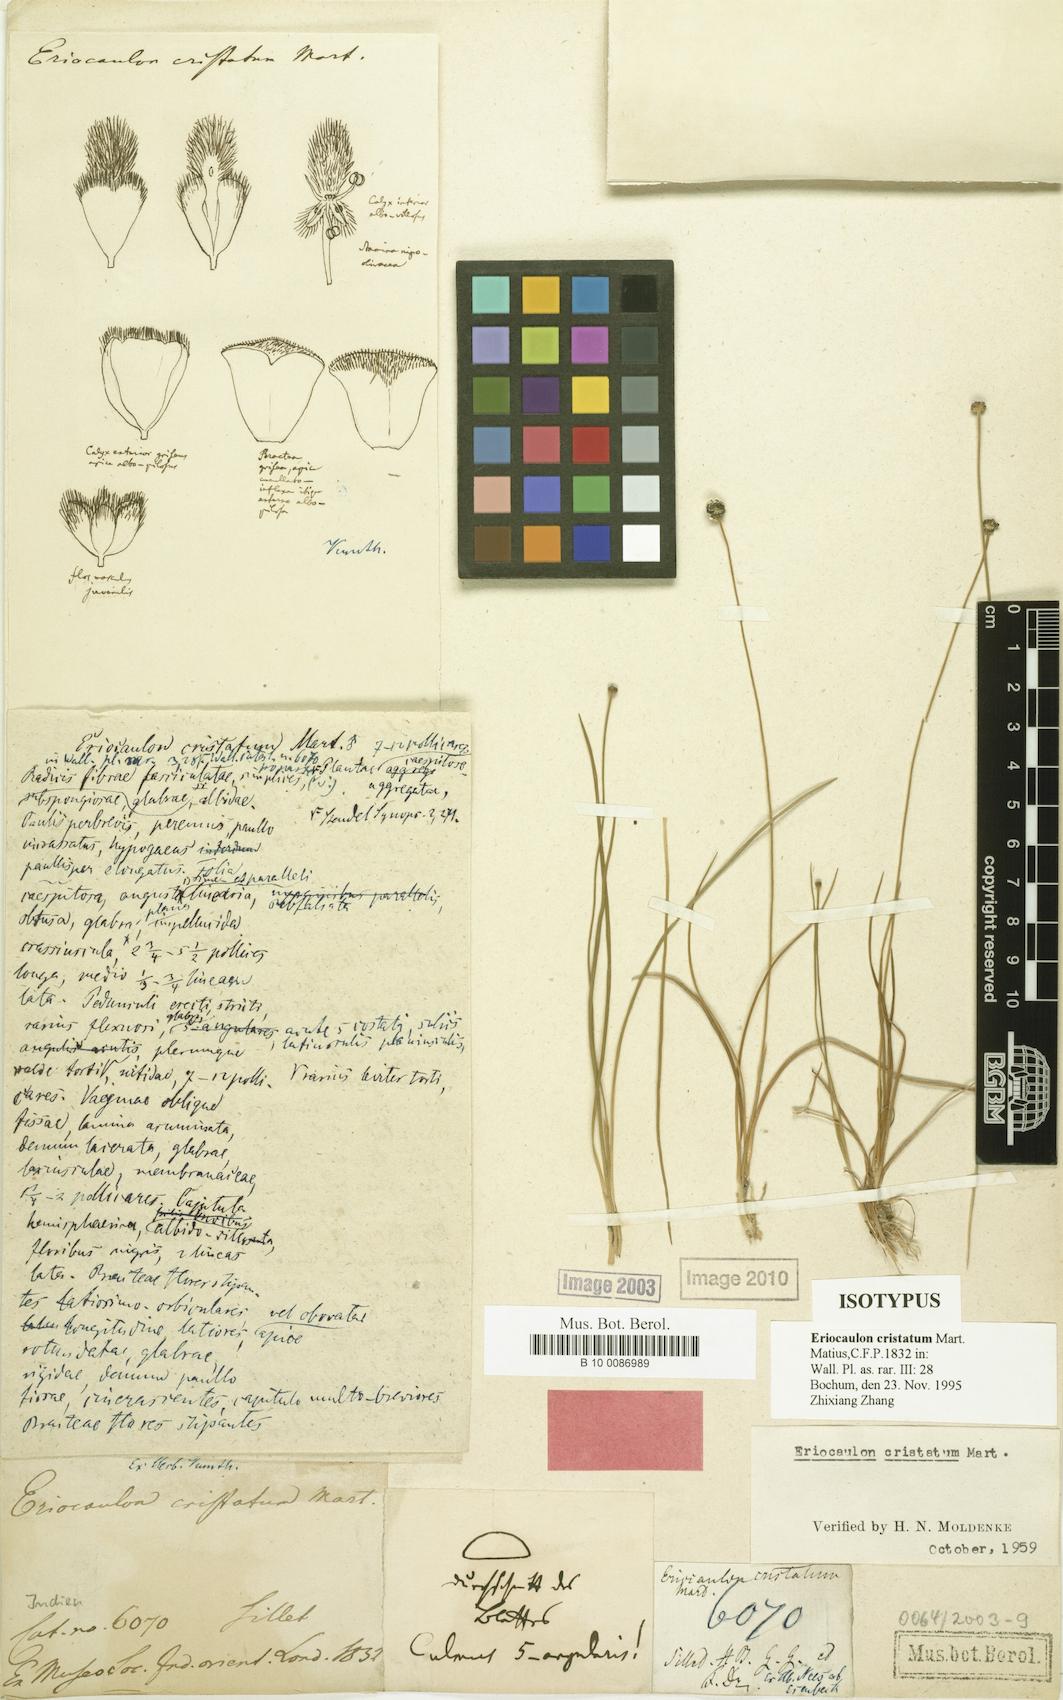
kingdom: Plantae
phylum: Tracheophyta
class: Liliopsida
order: Poales
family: Eriocaulaceae
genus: Eriocaulon
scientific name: Eriocaulon cristatum
